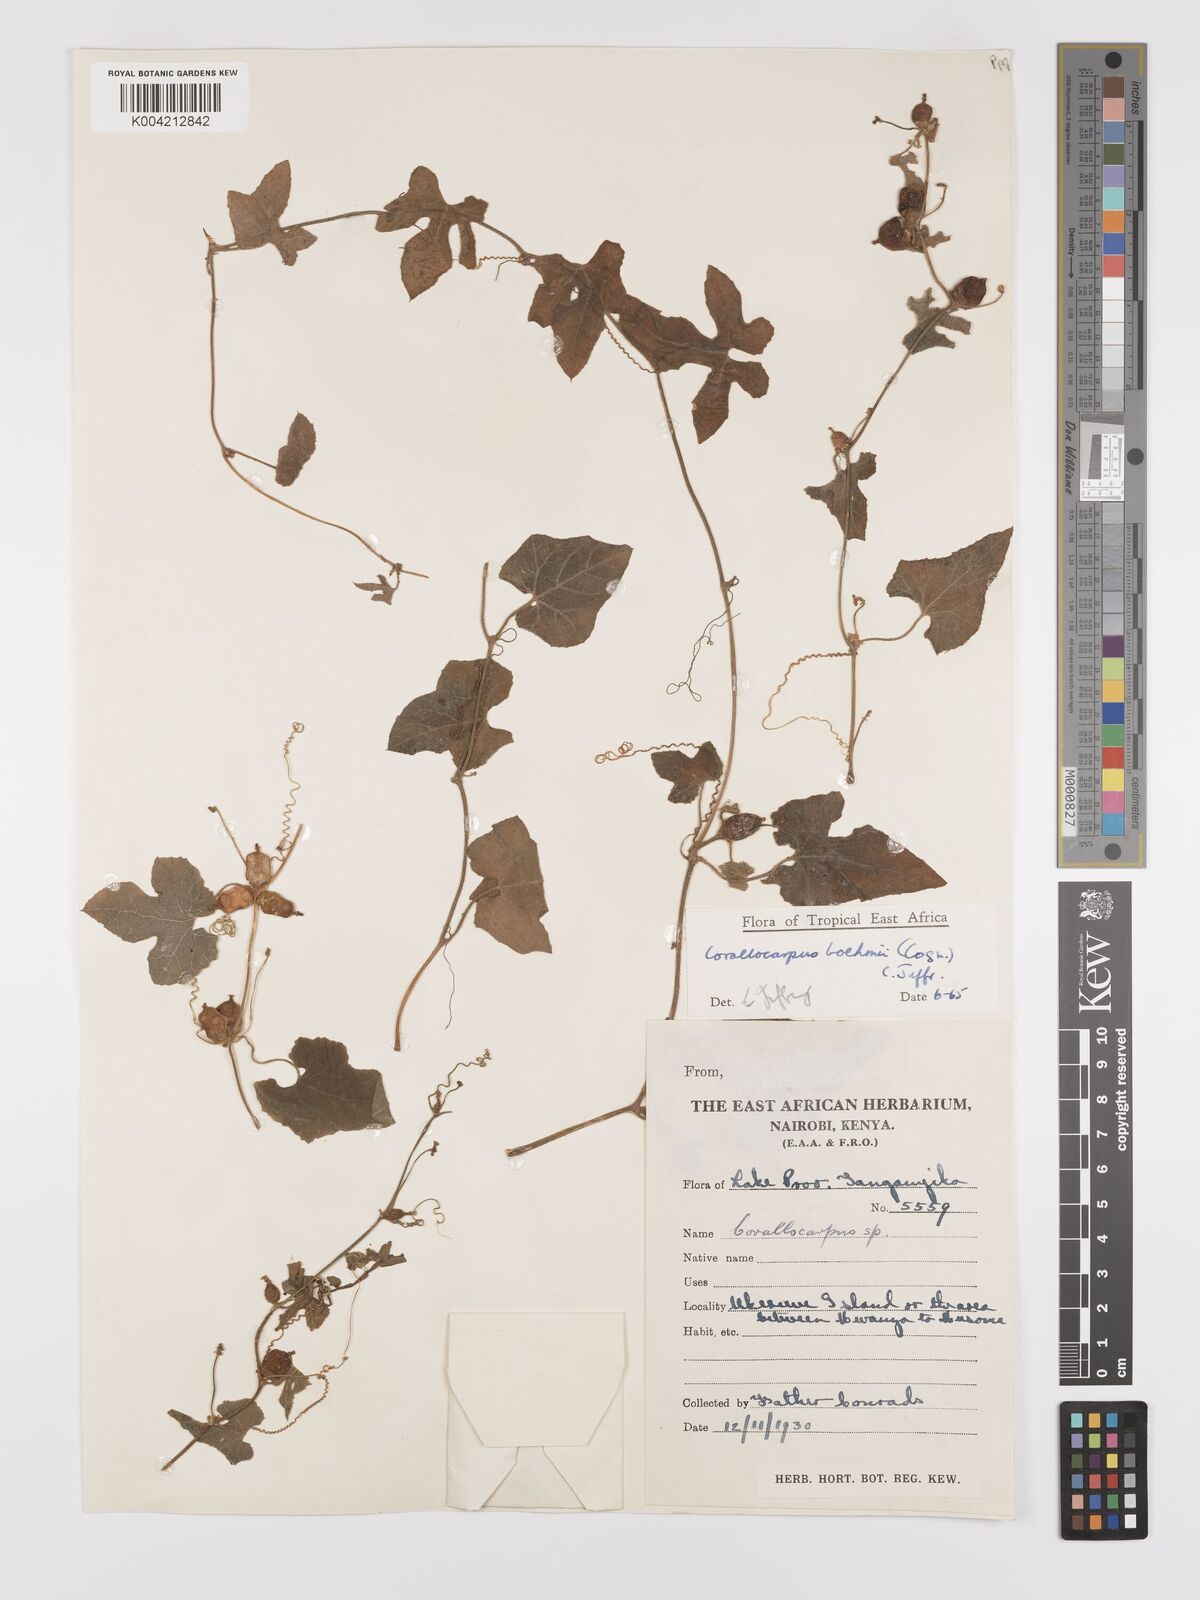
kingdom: Plantae
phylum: Tracheophyta
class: Magnoliopsida
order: Cucurbitales
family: Cucurbitaceae
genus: Corallocarpus
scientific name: Corallocarpus boehmii
